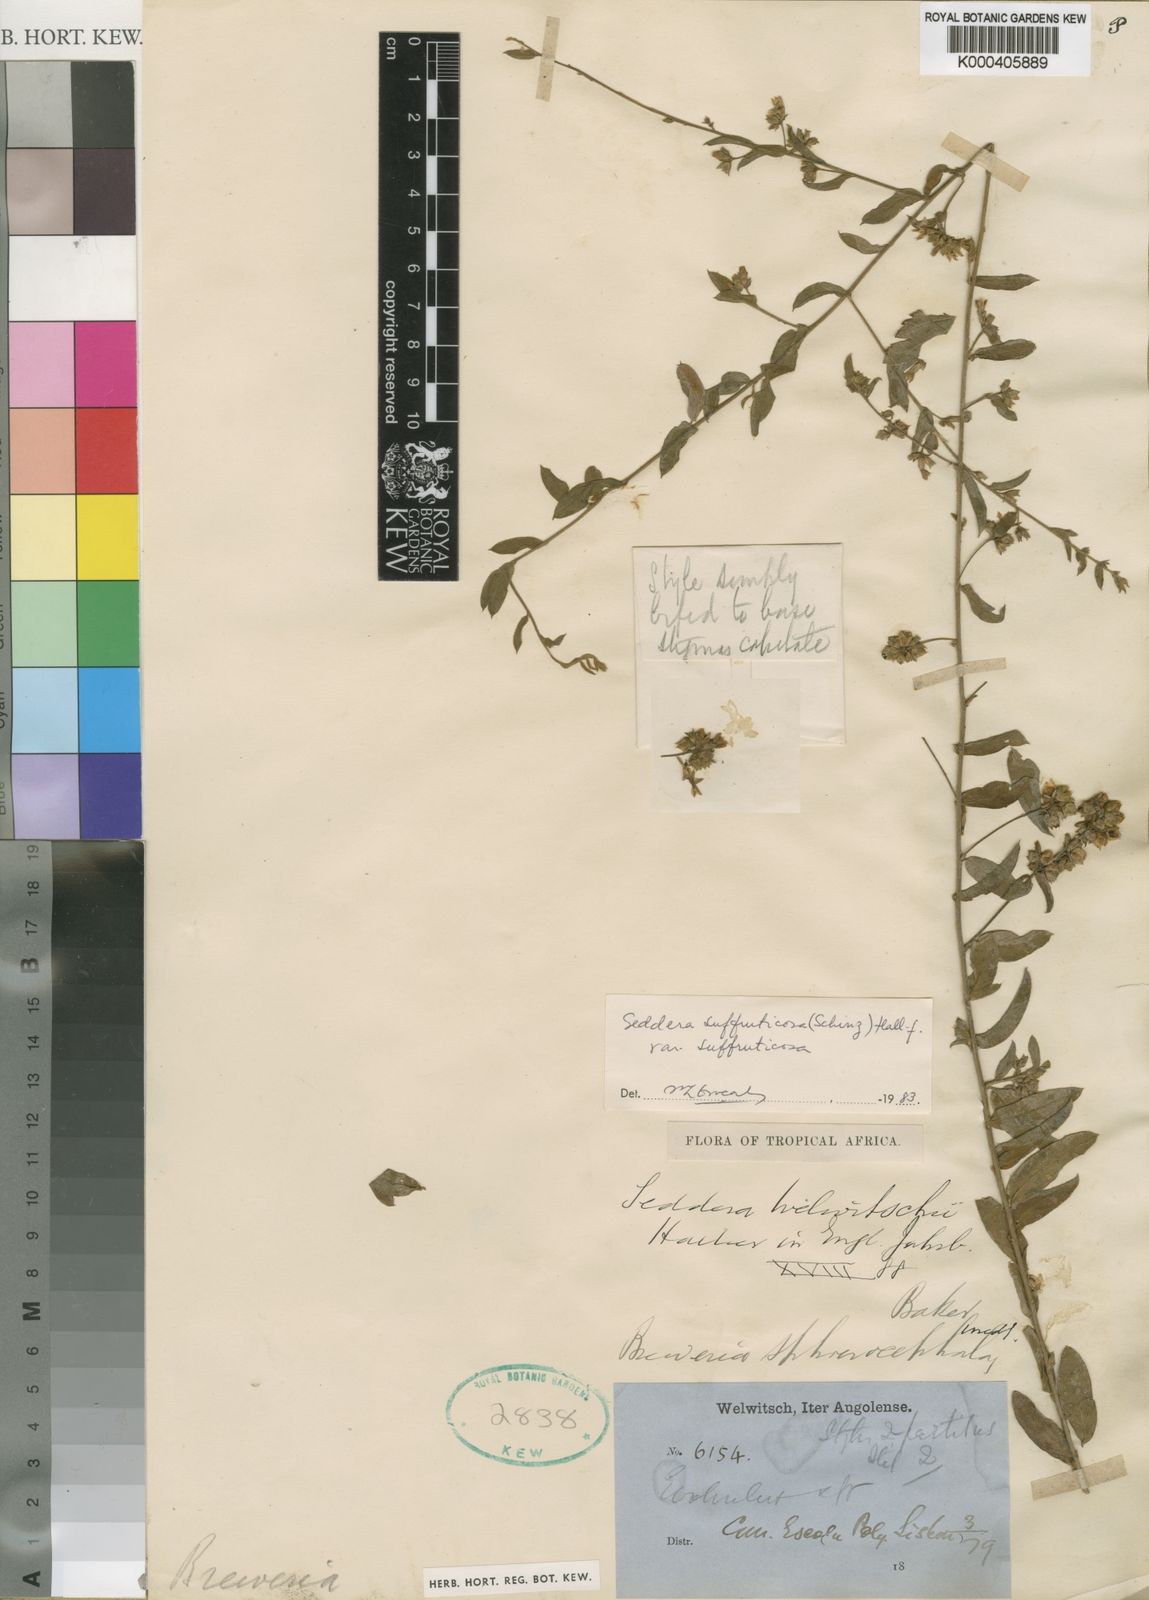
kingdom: Plantae
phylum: Tracheophyta
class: Magnoliopsida
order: Solanales
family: Convolvulaceae
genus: Seddera
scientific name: Seddera suffruticosa
